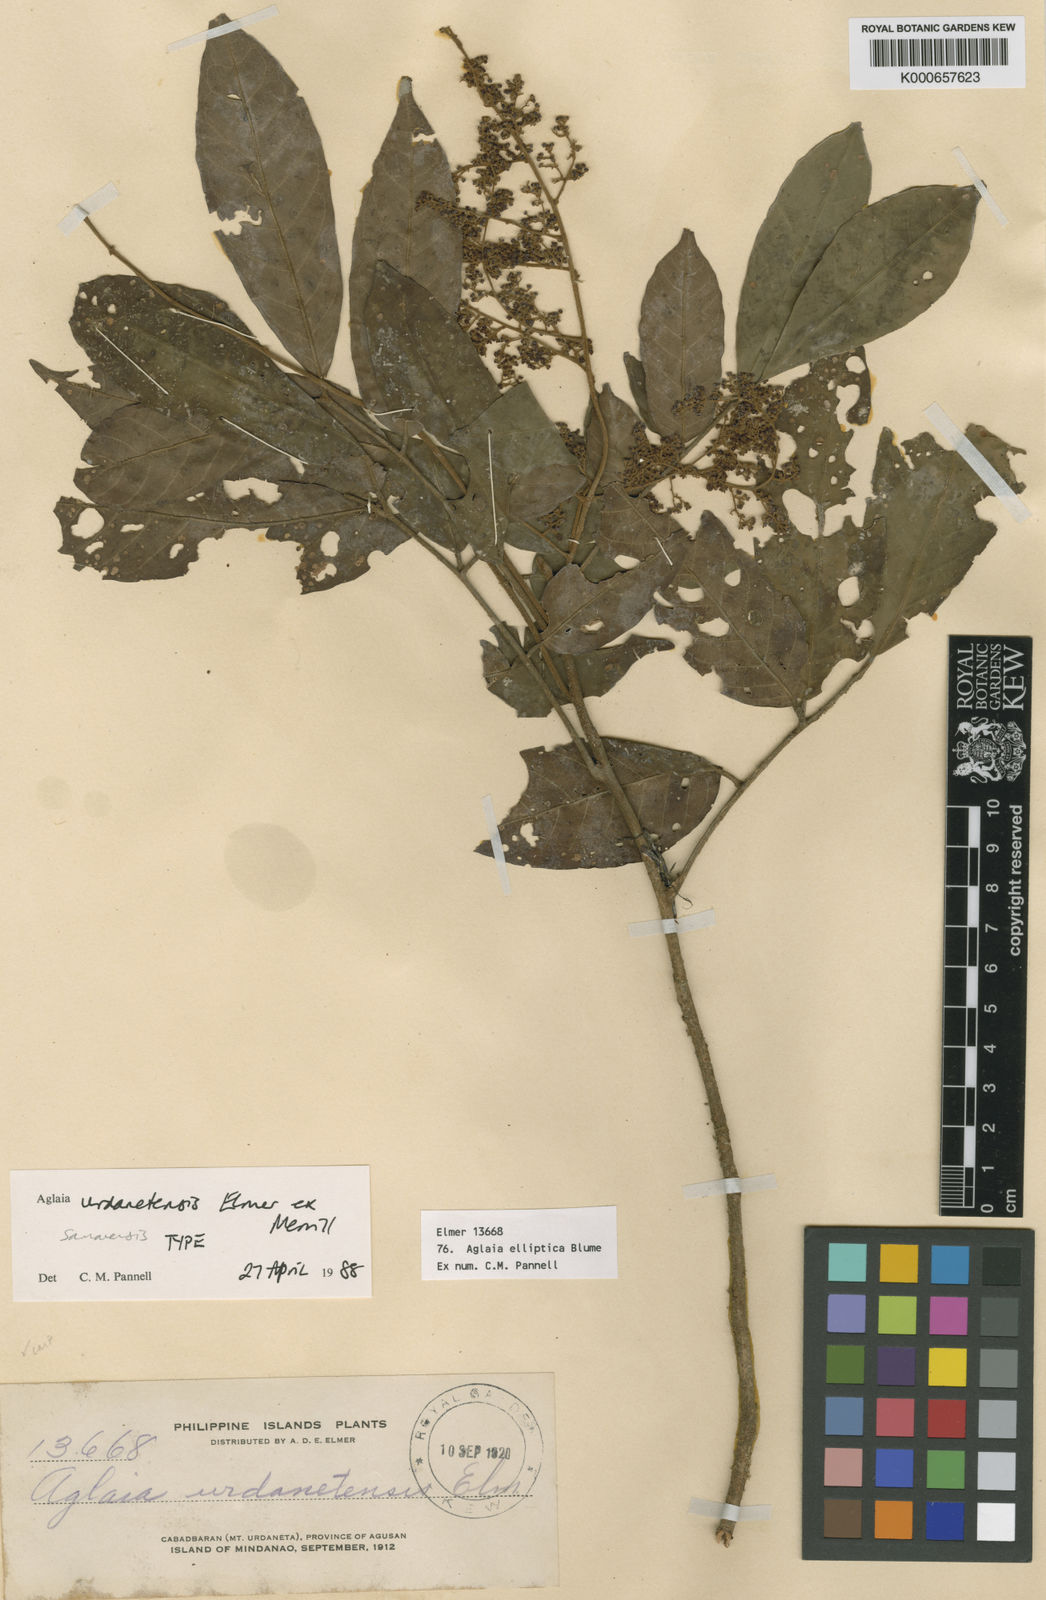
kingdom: Plantae
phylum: Tracheophyta
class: Magnoliopsida
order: Sapindales
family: Meliaceae
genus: Aglaia
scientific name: Aglaia elliptica
